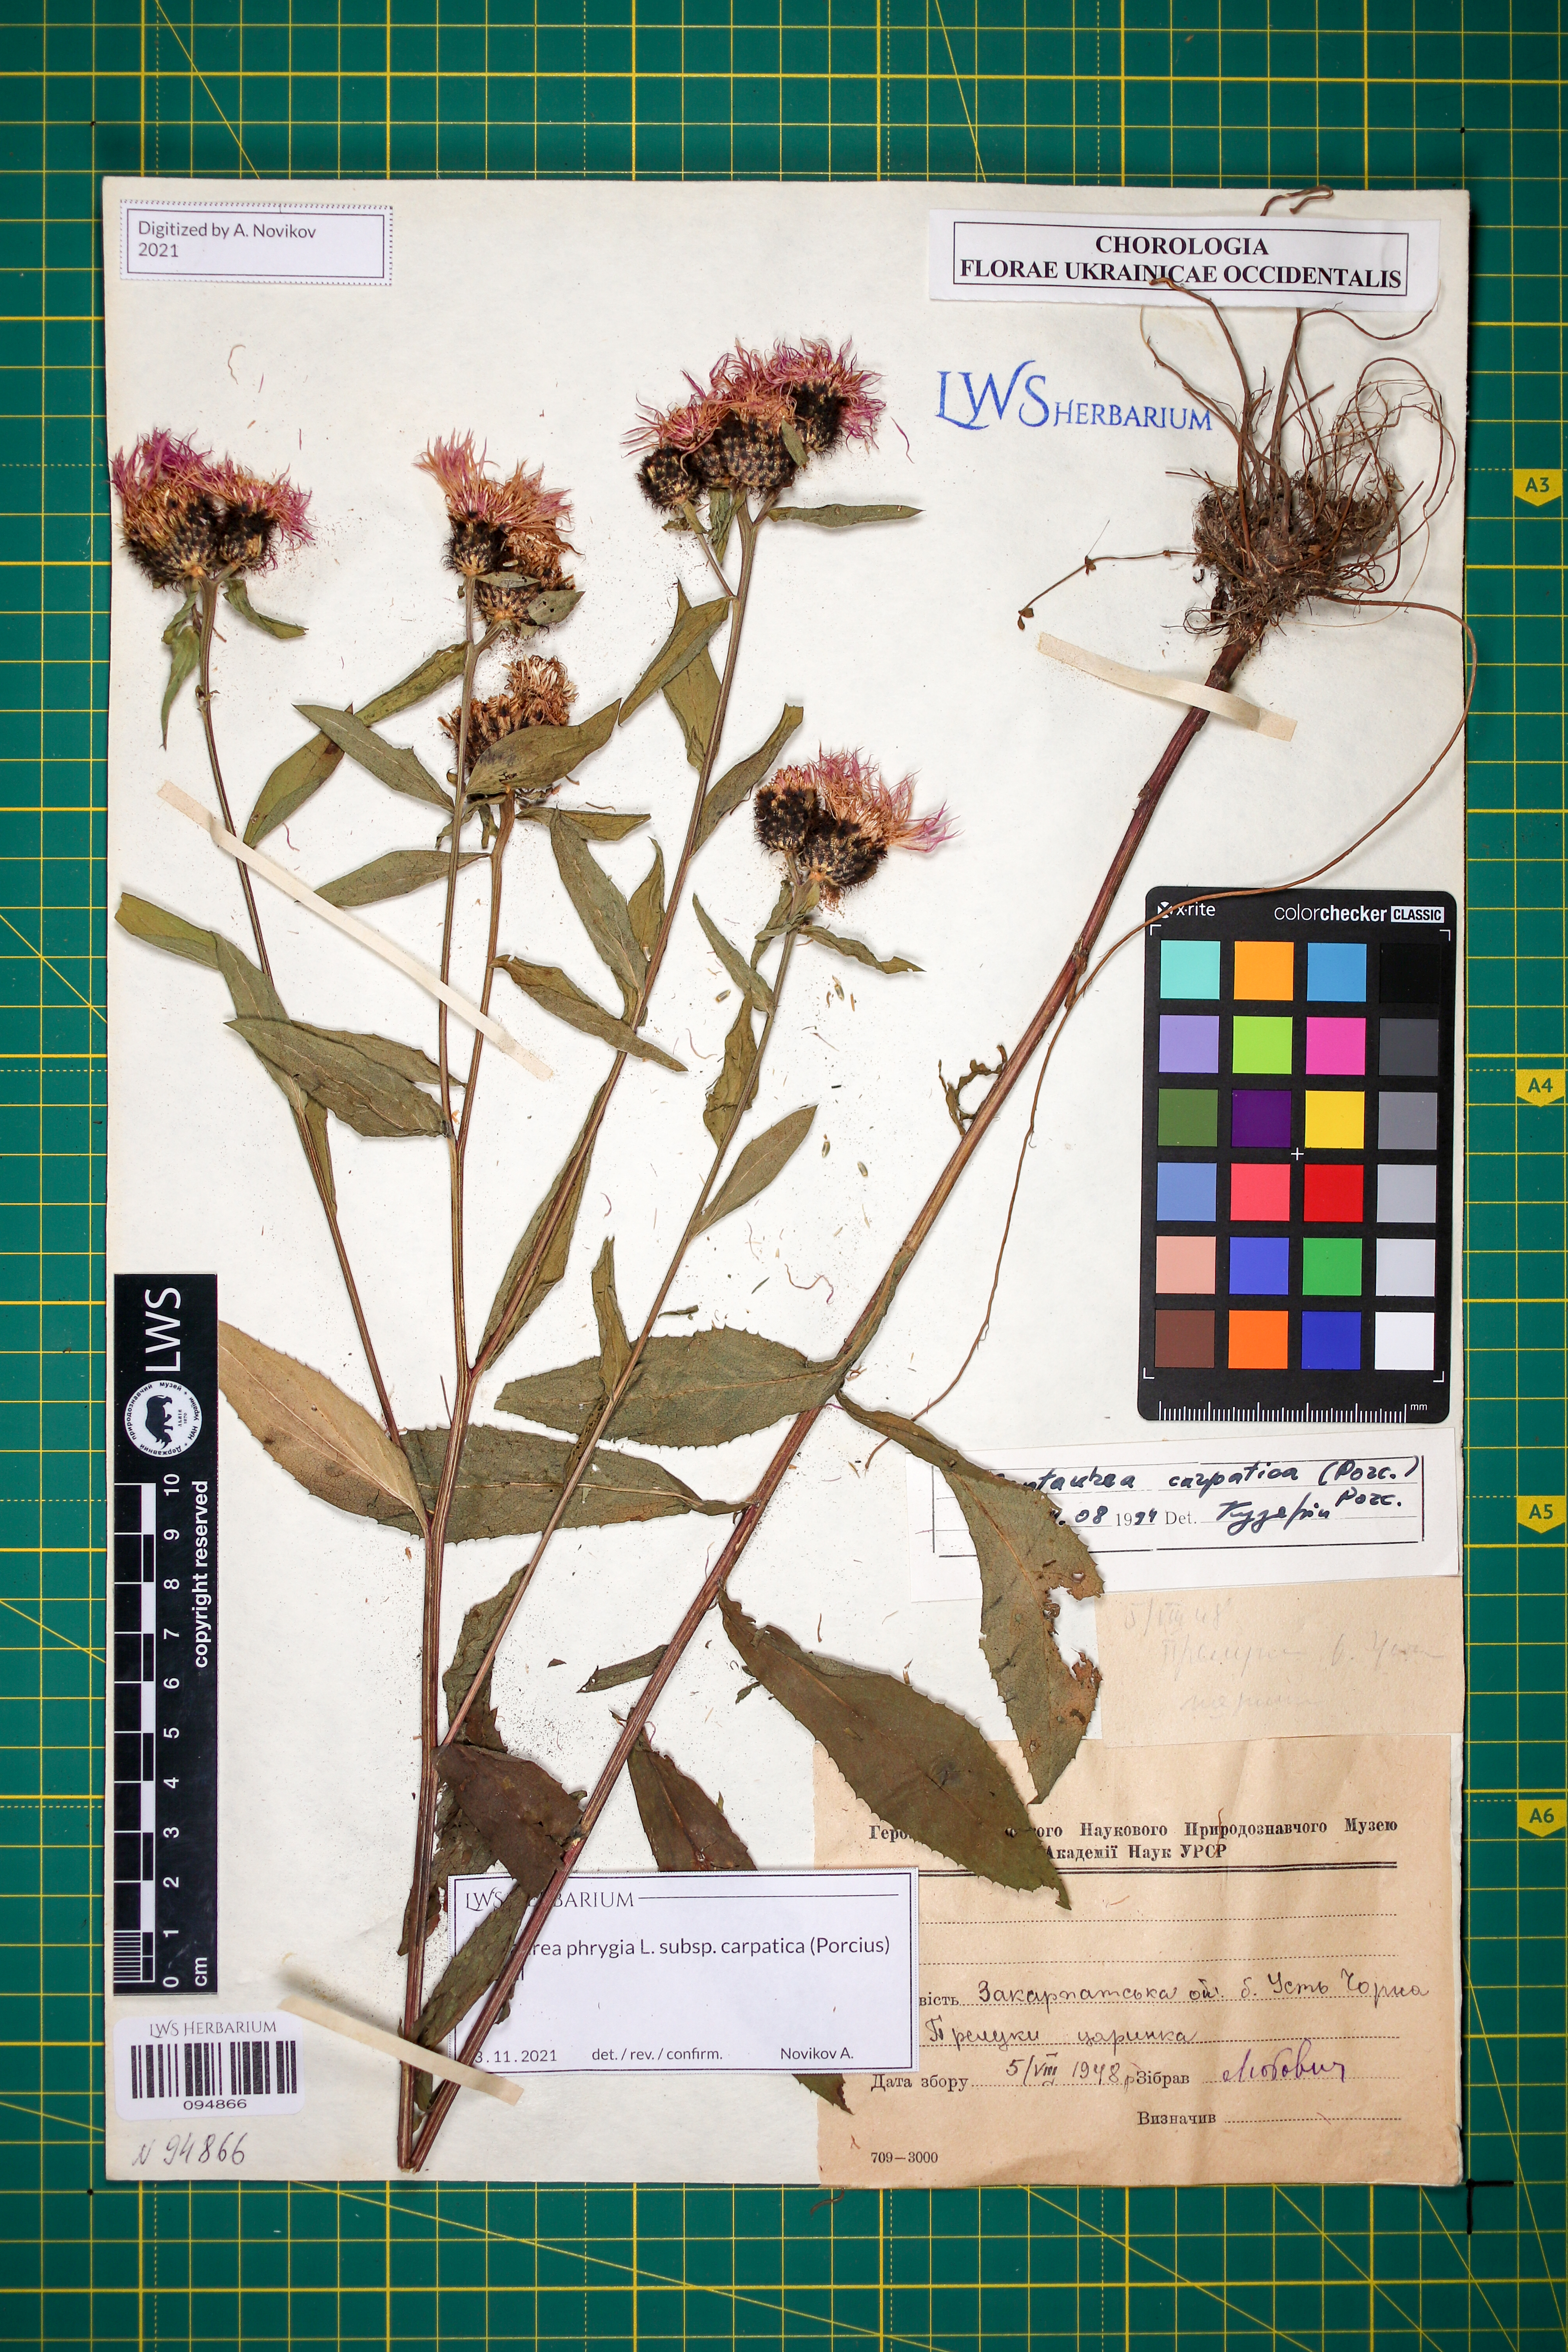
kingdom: Plantae
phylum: Tracheophyta
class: Magnoliopsida
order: Asterales
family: Asteraceae
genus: Centaurea
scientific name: Centaurea phrygia
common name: Wig knapweed
